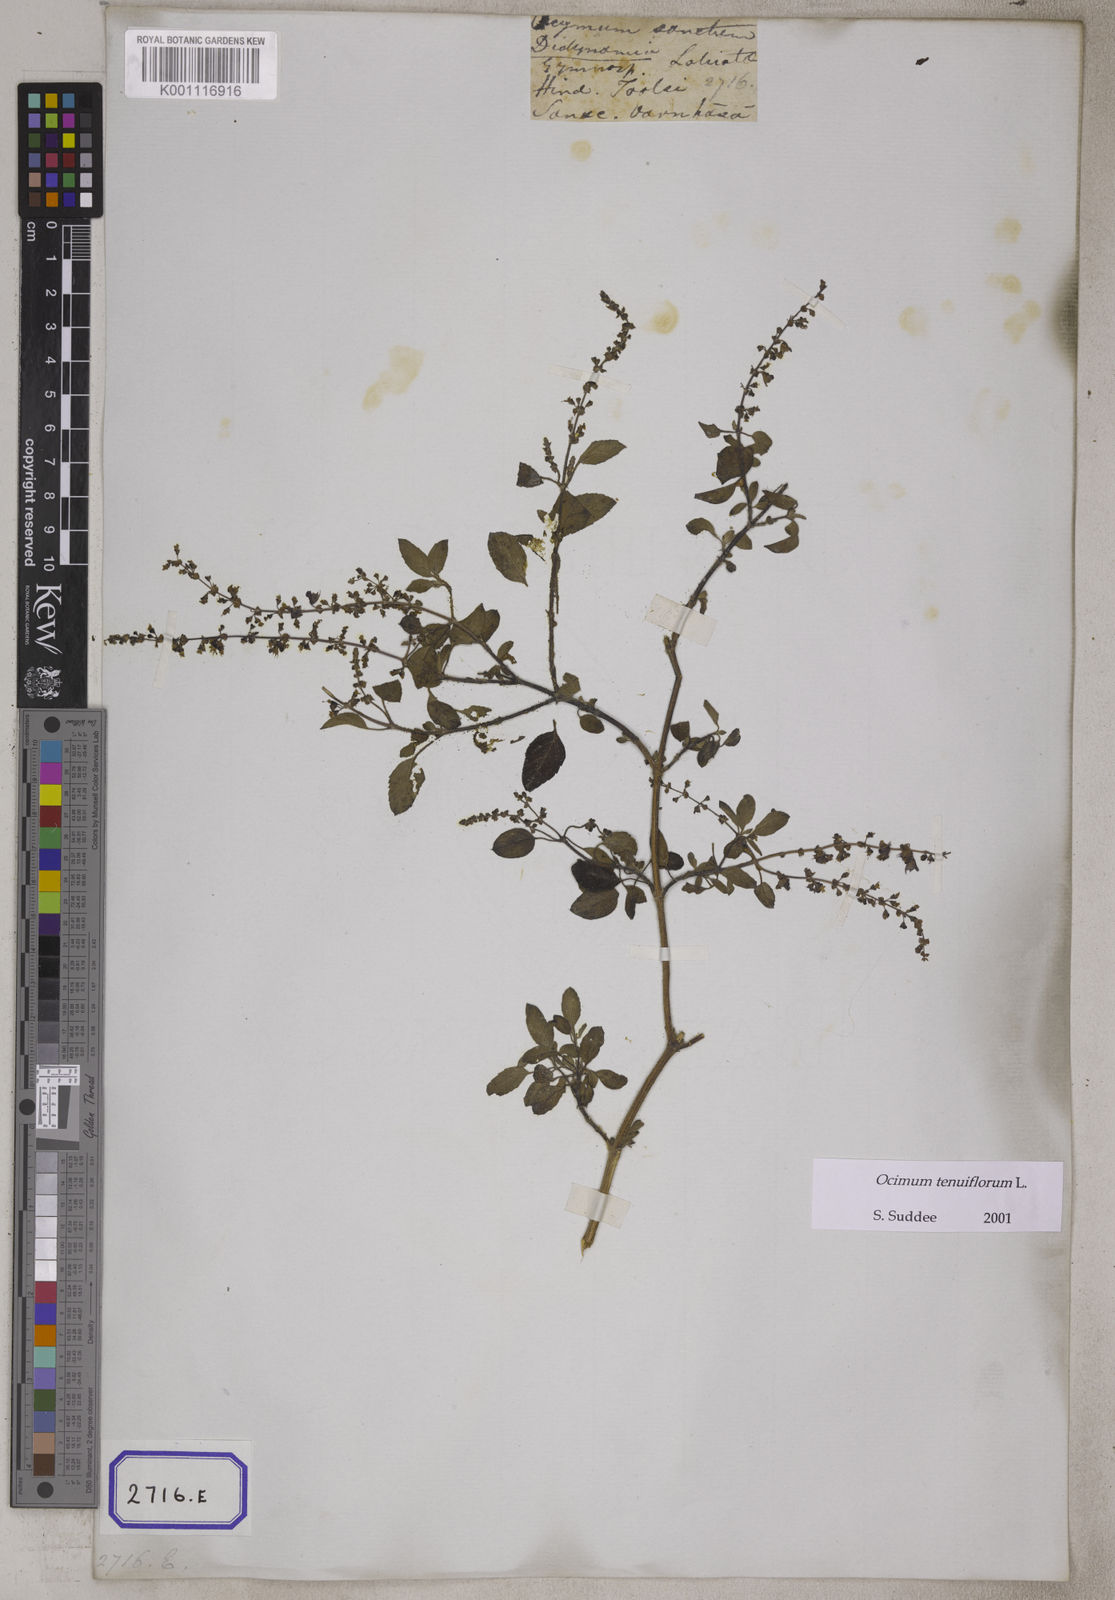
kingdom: Plantae
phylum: Tracheophyta
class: Magnoliopsida
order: Lamiales
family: Lamiaceae
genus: Ocimum
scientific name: Ocimum tenuiflorum
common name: Sacred basil
